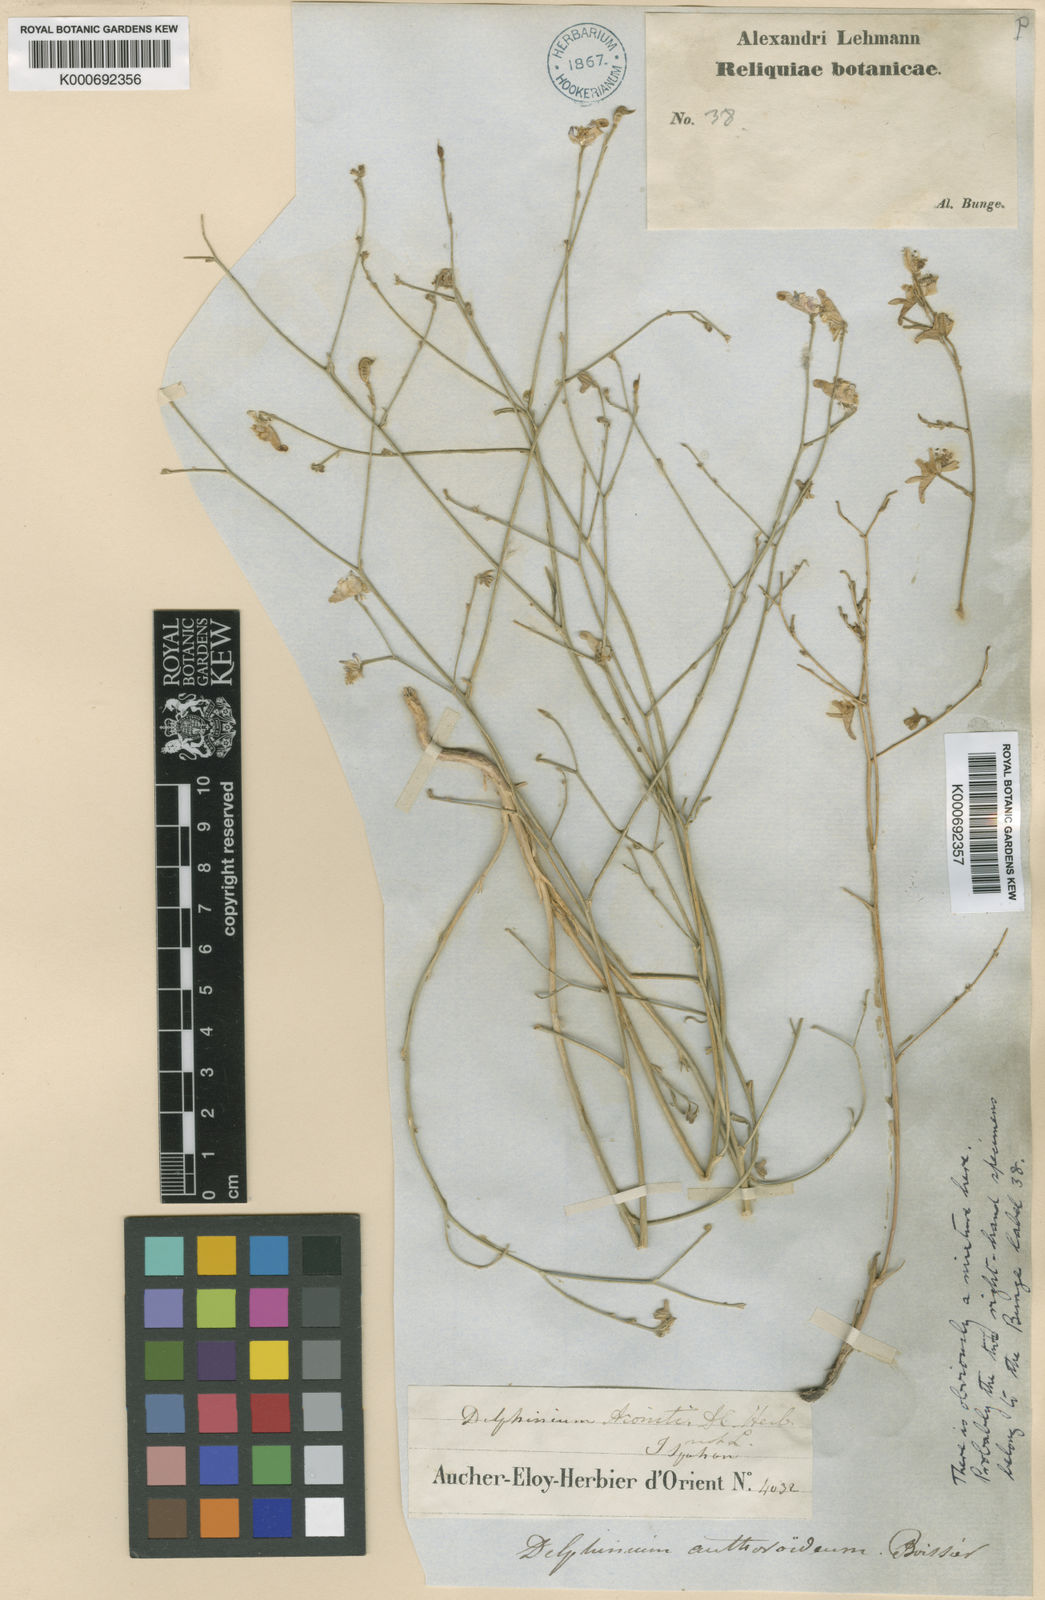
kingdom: Plantae
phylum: Tracheophyta
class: Magnoliopsida
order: Ranunculales
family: Ranunculaceae
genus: Delphinium
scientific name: Delphinium
